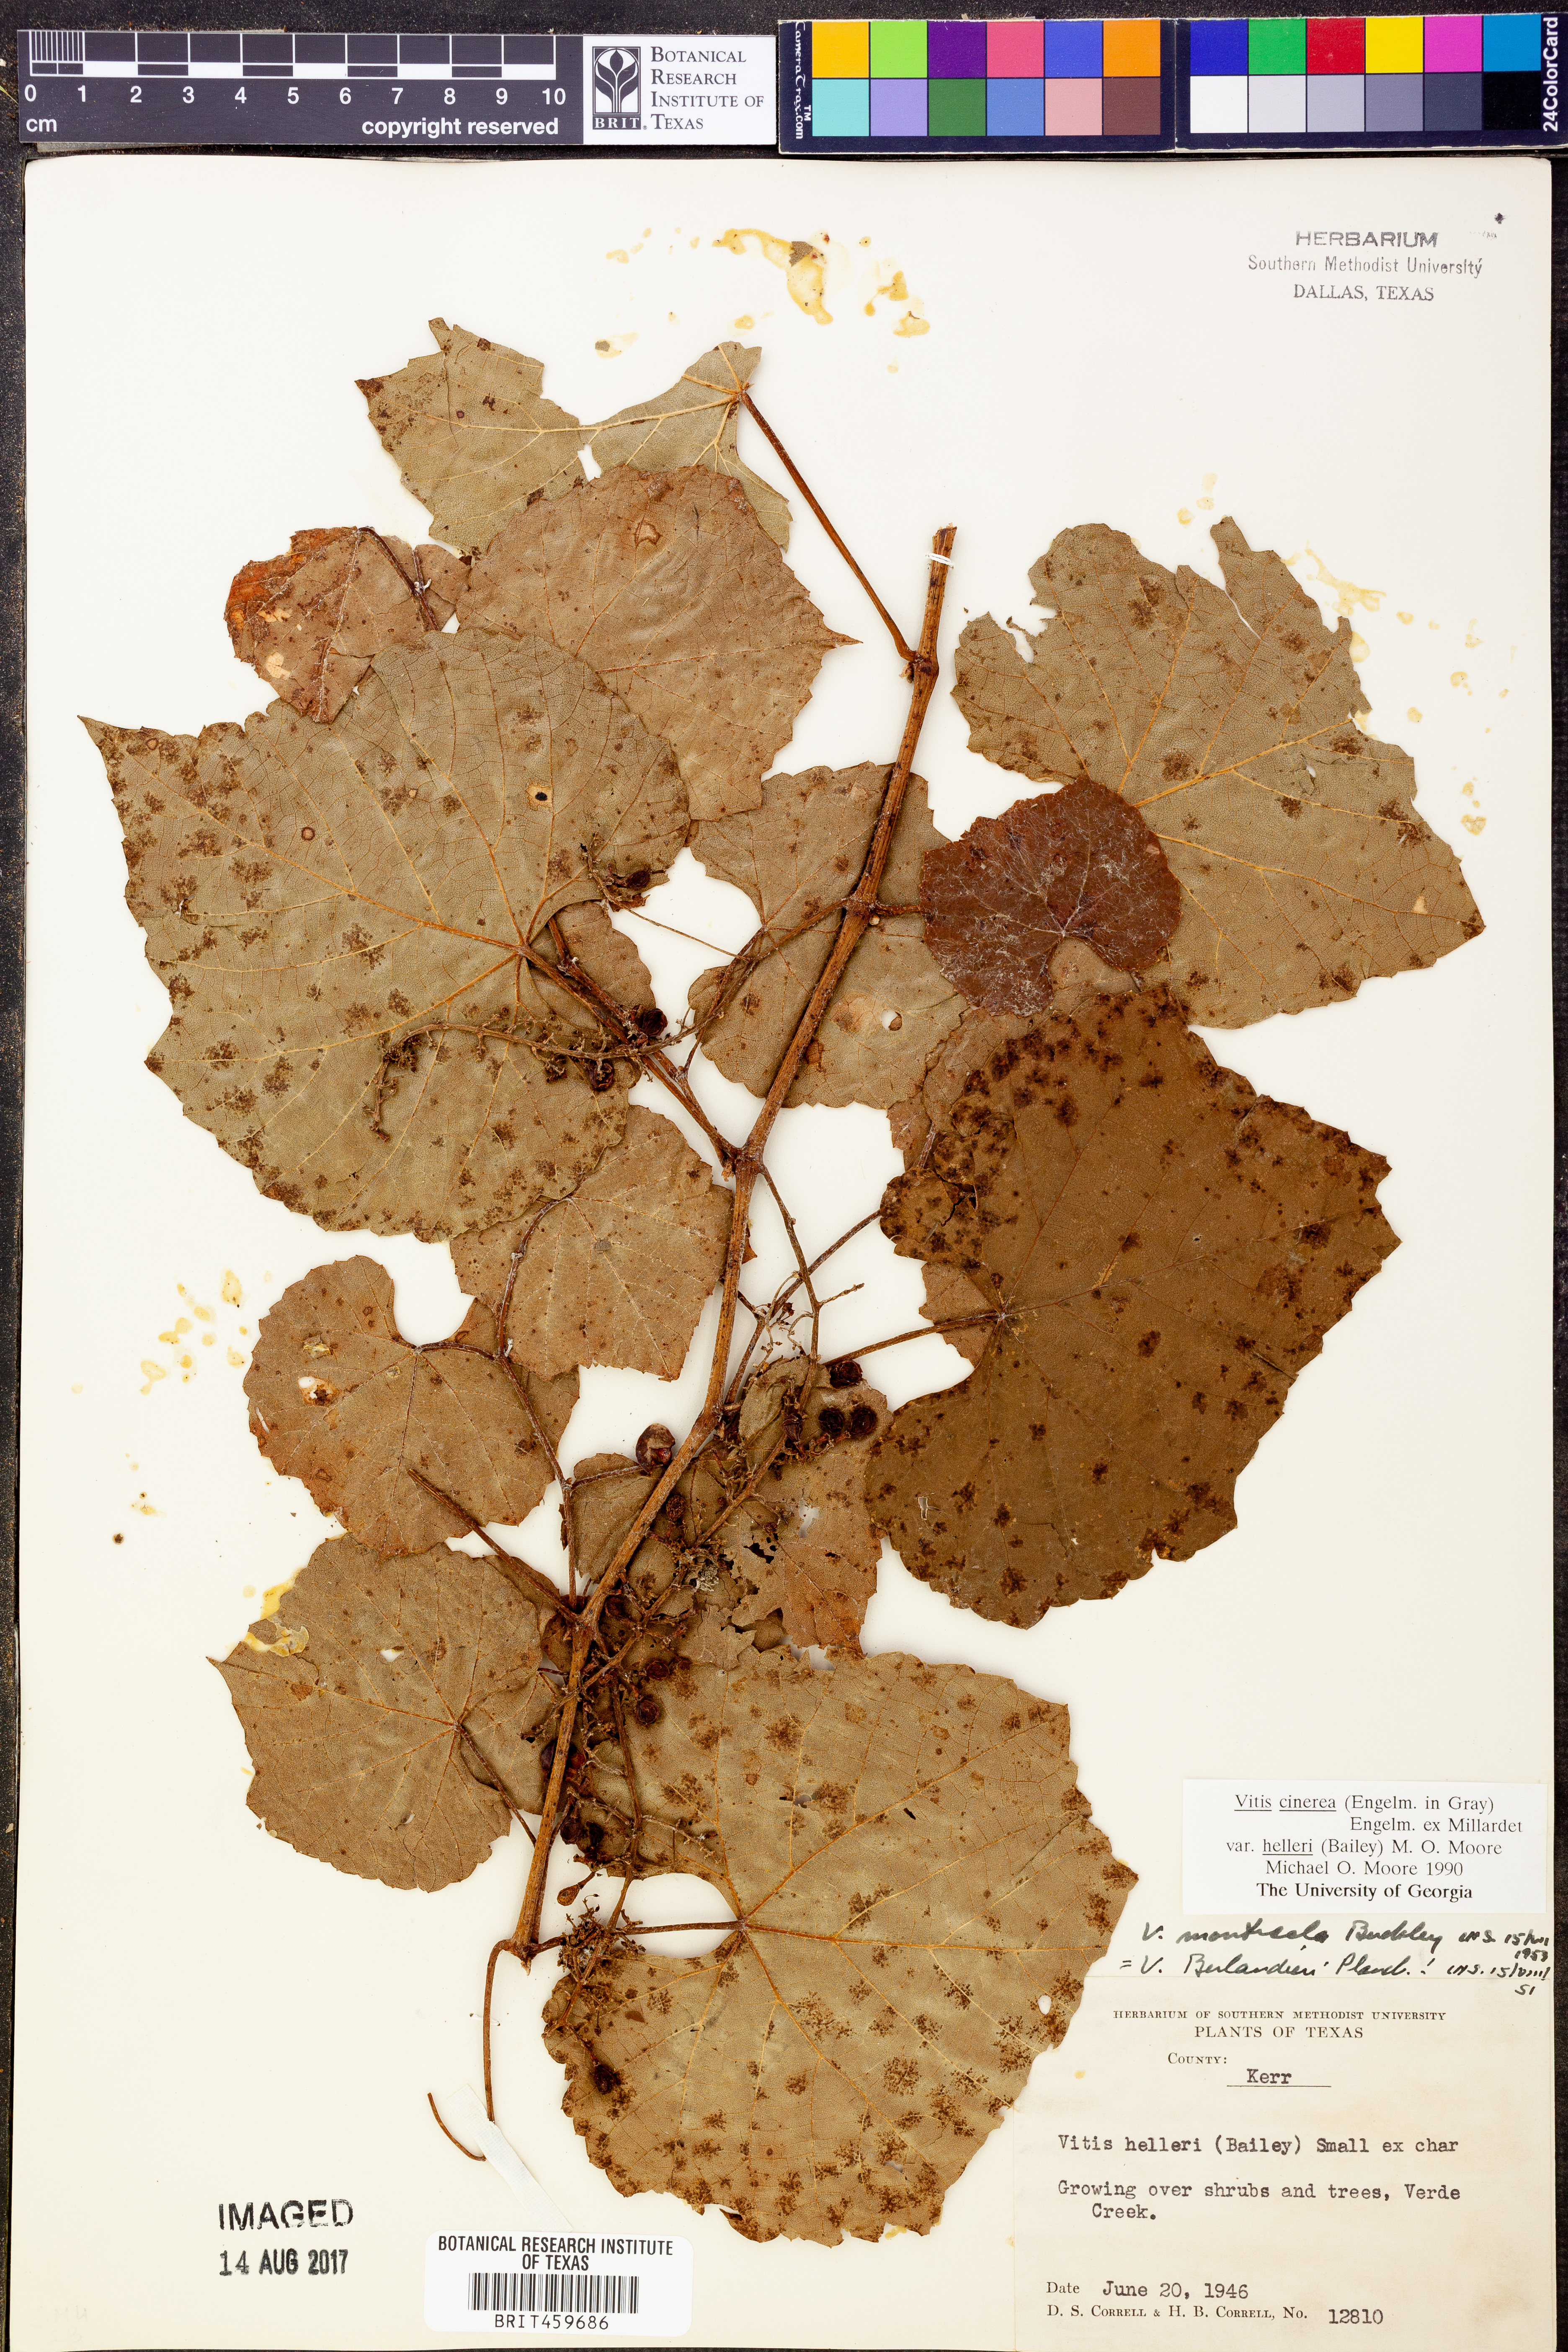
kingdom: Plantae
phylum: Tracheophyta
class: Magnoliopsida
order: Vitales
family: Vitaceae
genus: Vitis
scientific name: Vitis cinerea
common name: Ashy grape
